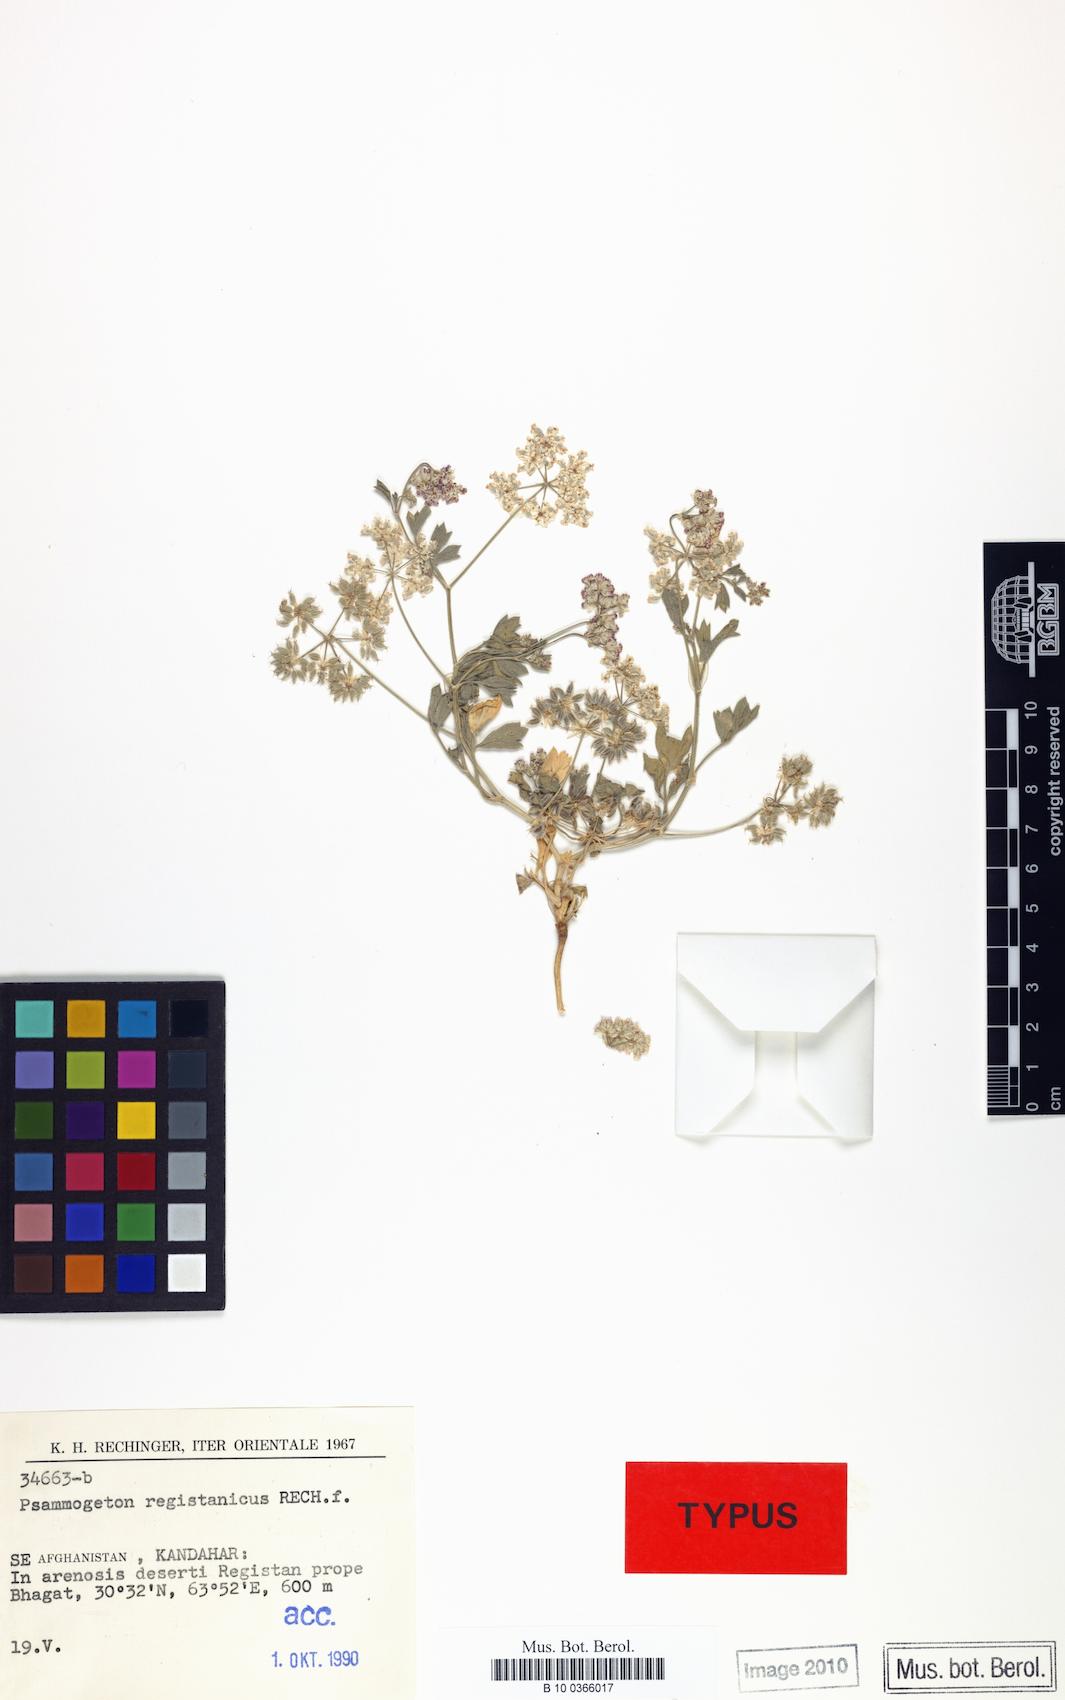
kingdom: Plantae
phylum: Tracheophyta
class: Magnoliopsida
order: Apiales
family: Apiaceae
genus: Psammogeton
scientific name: Psammogeton registanicus
